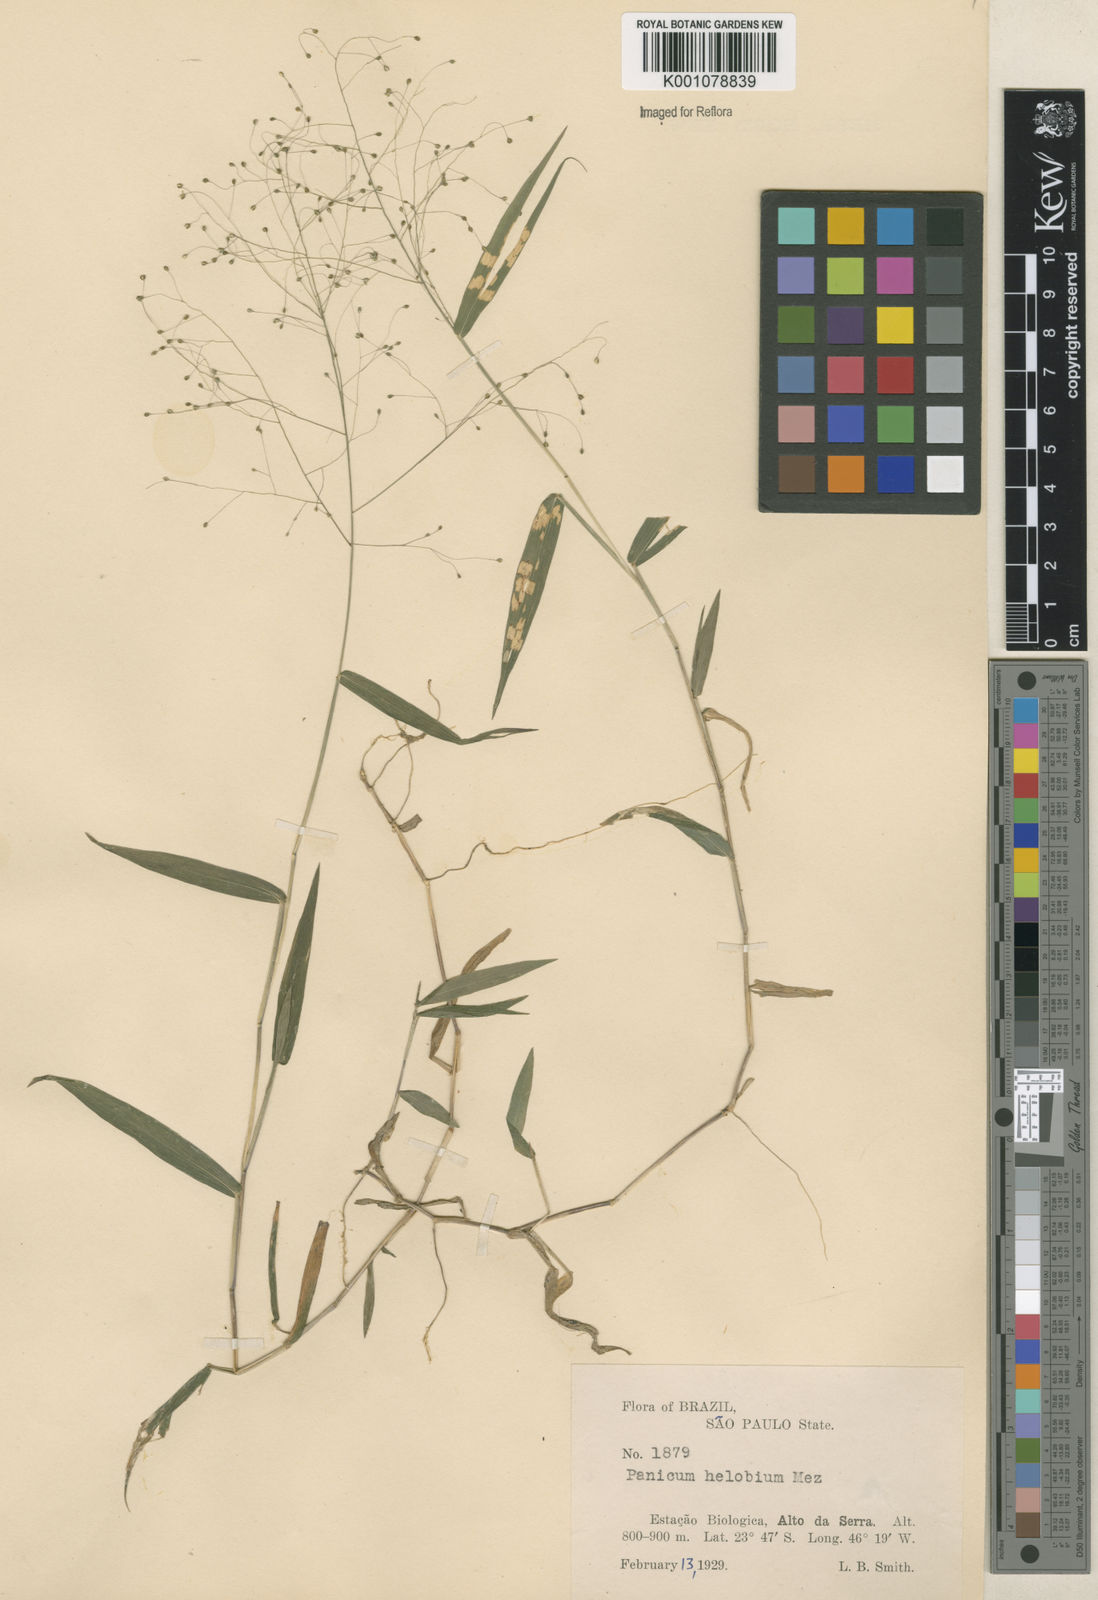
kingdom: Plantae
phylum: Tracheophyta
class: Liliopsida
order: Poales
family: Poaceae
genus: Trichanthecium
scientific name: Trichanthecium schwackeanum
